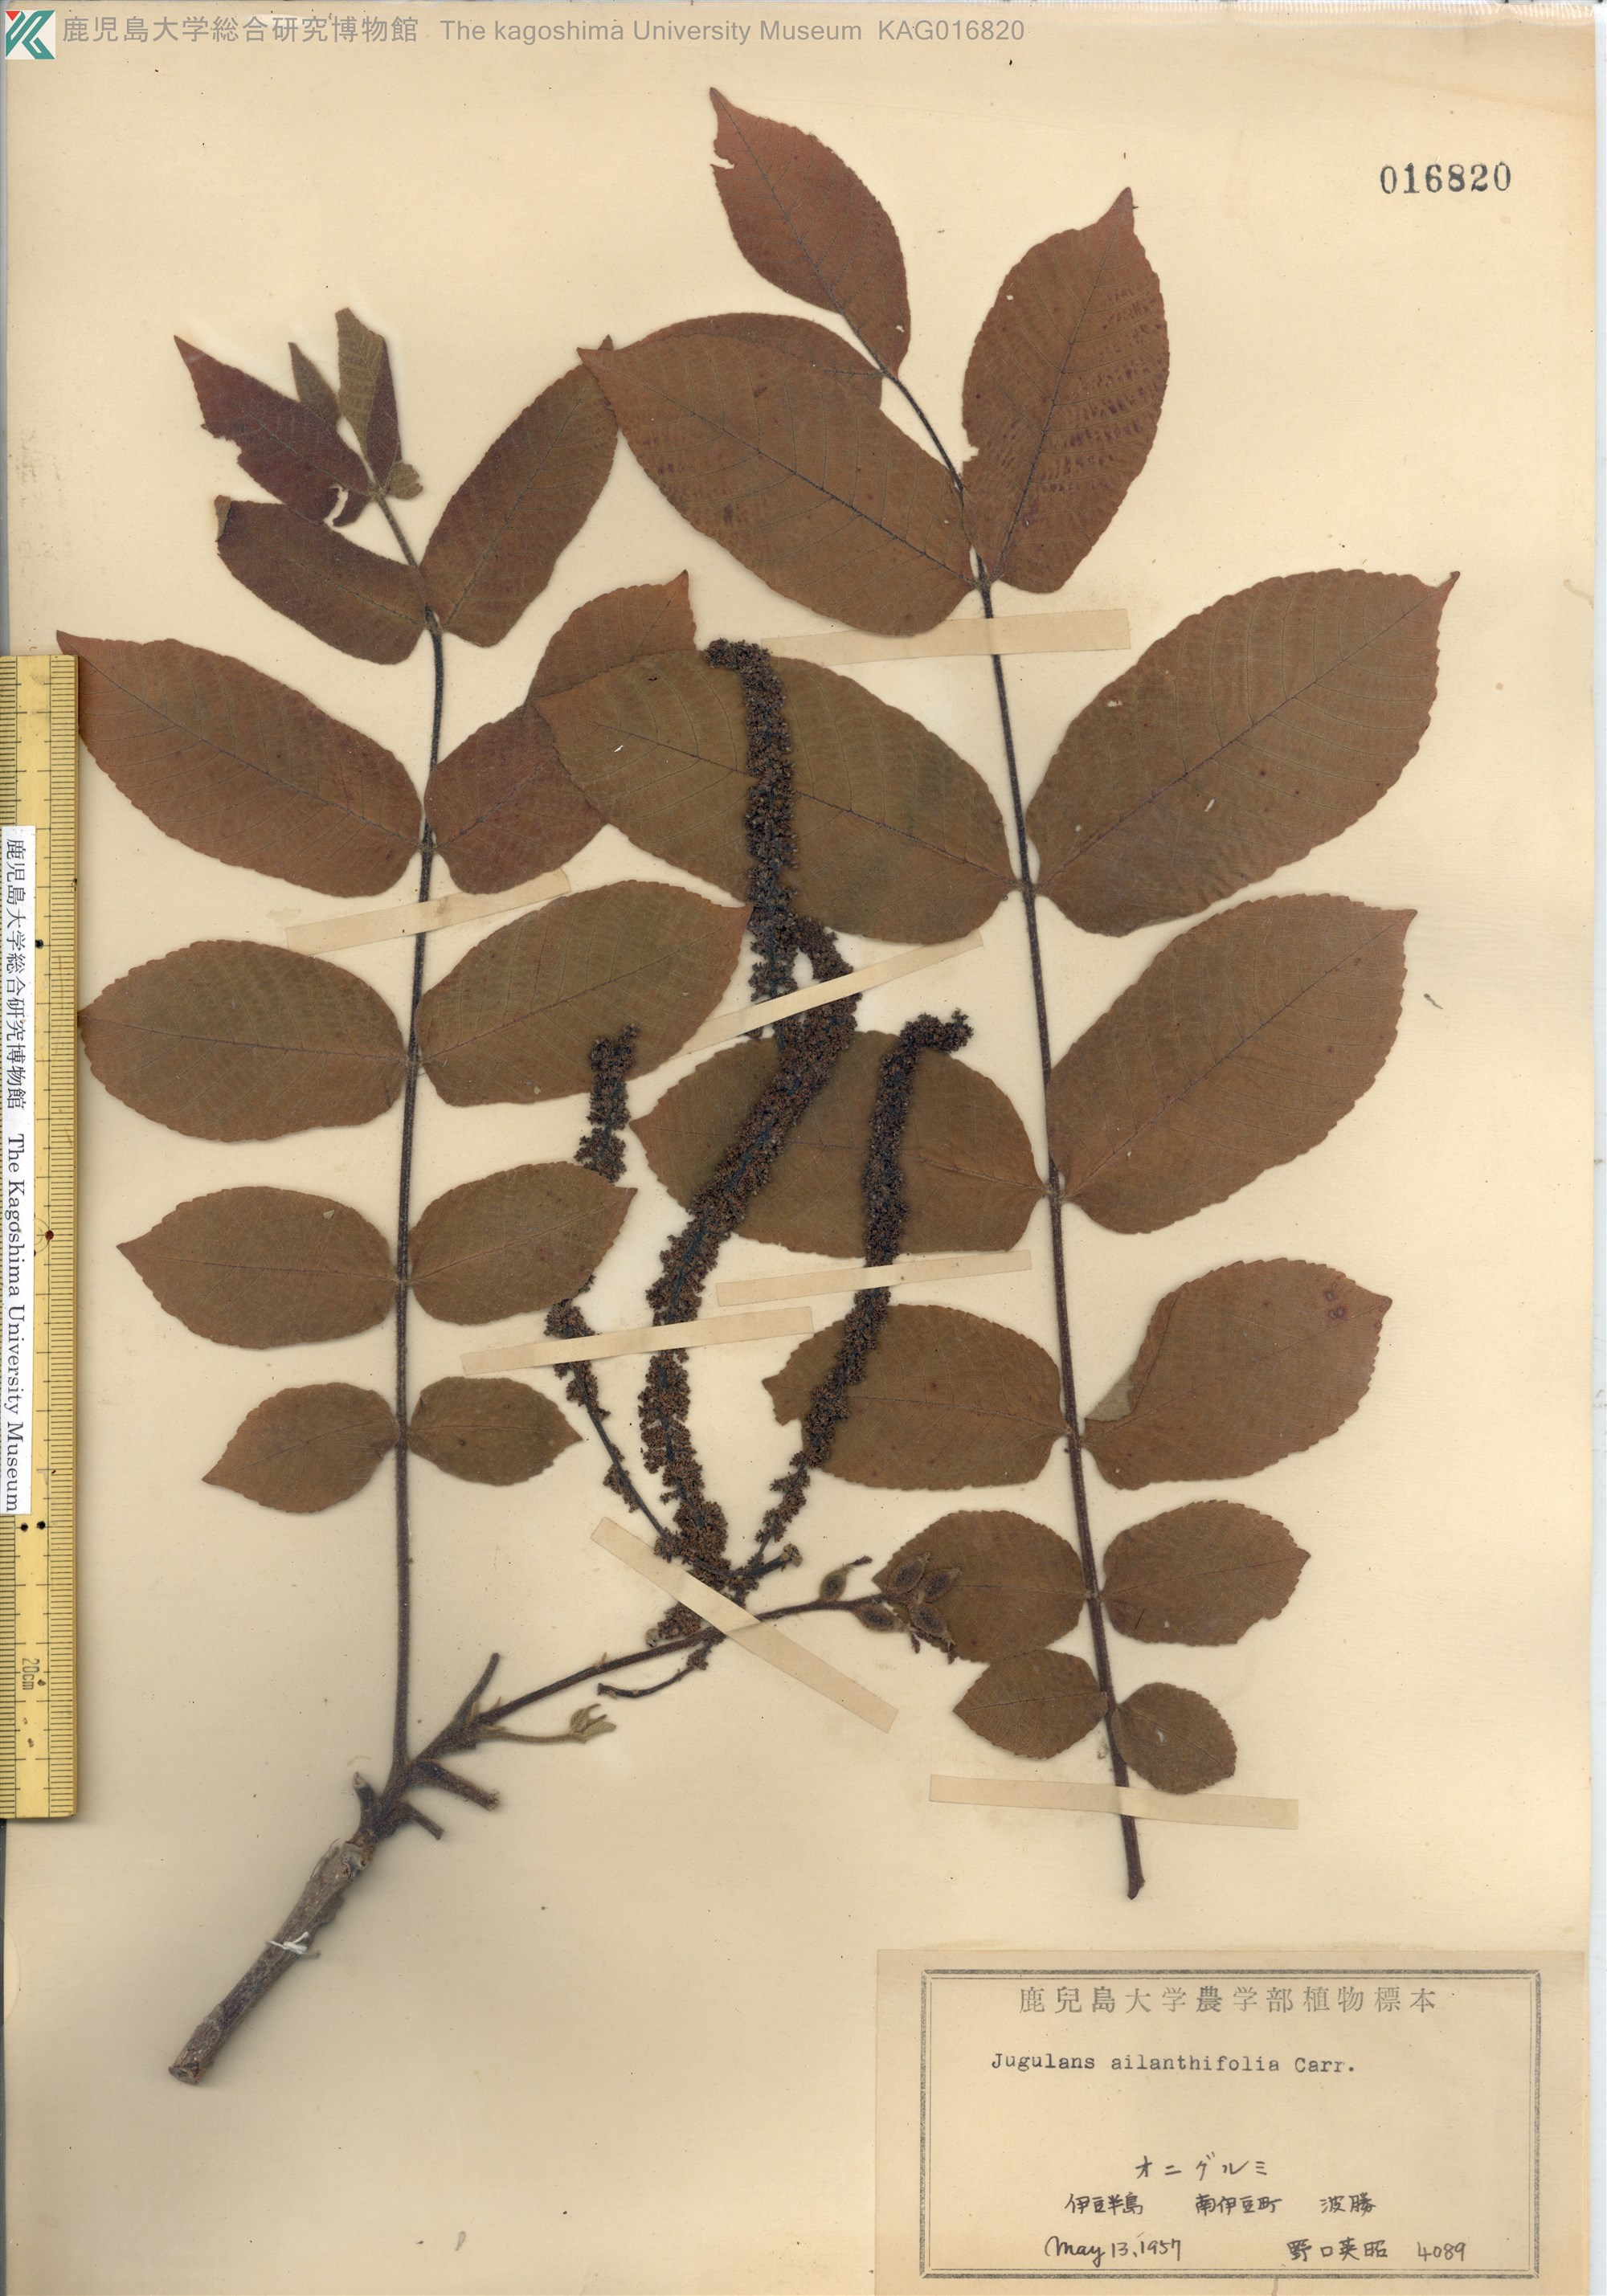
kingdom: Plantae
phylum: Tracheophyta
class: Magnoliopsida
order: Fagales
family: Juglandaceae
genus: Juglans
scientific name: Juglans ailantifolia
